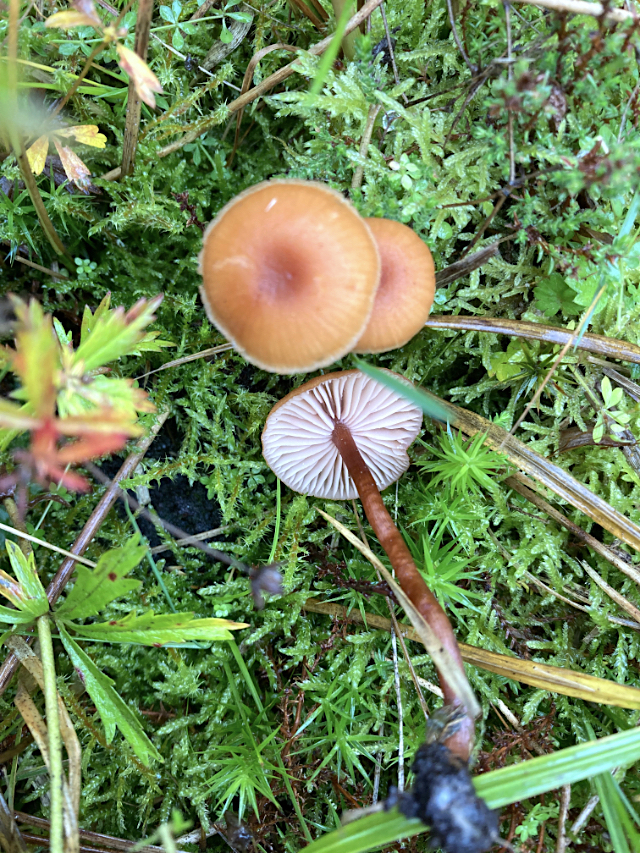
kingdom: Fungi
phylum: Basidiomycota
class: Agaricomycetes
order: Agaricales
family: Hydnangiaceae
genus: Laccaria
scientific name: Laccaria
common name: ametysthat
